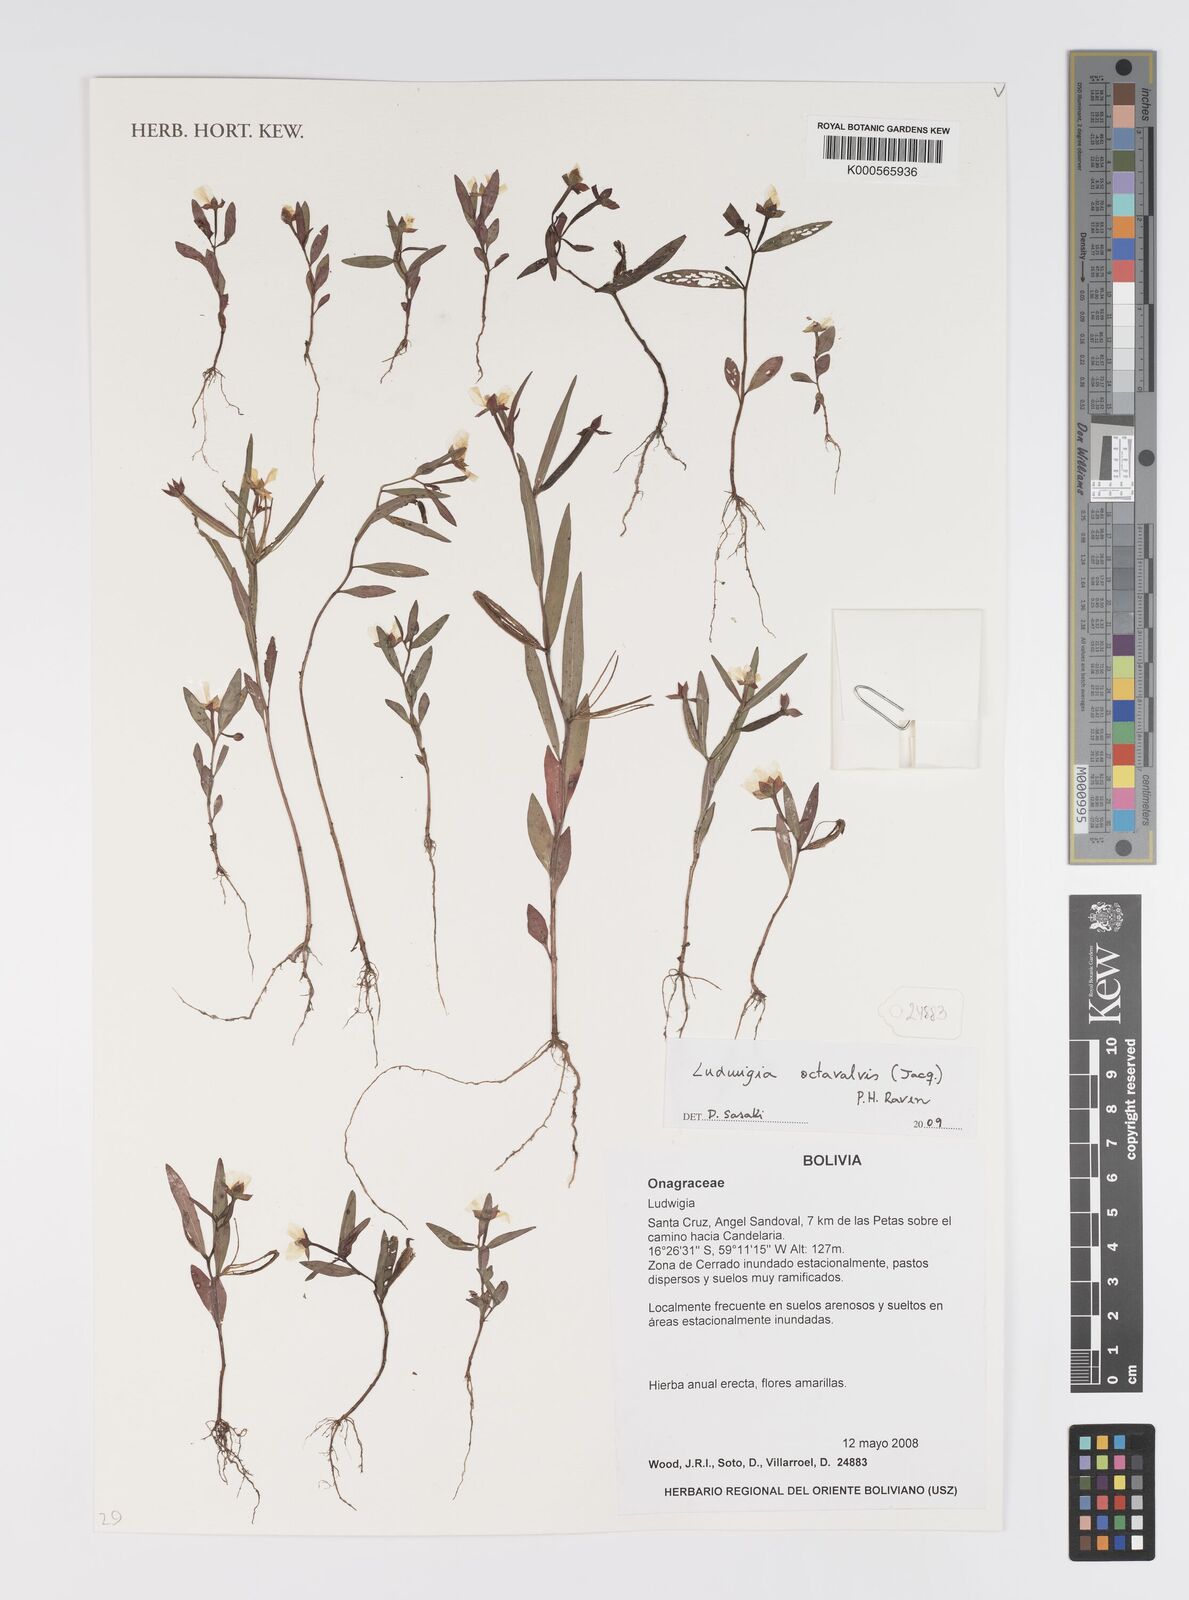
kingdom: Plantae
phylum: Tracheophyta
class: Magnoliopsida
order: Myrtales
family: Onagraceae
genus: Ludwigia
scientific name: Ludwigia
